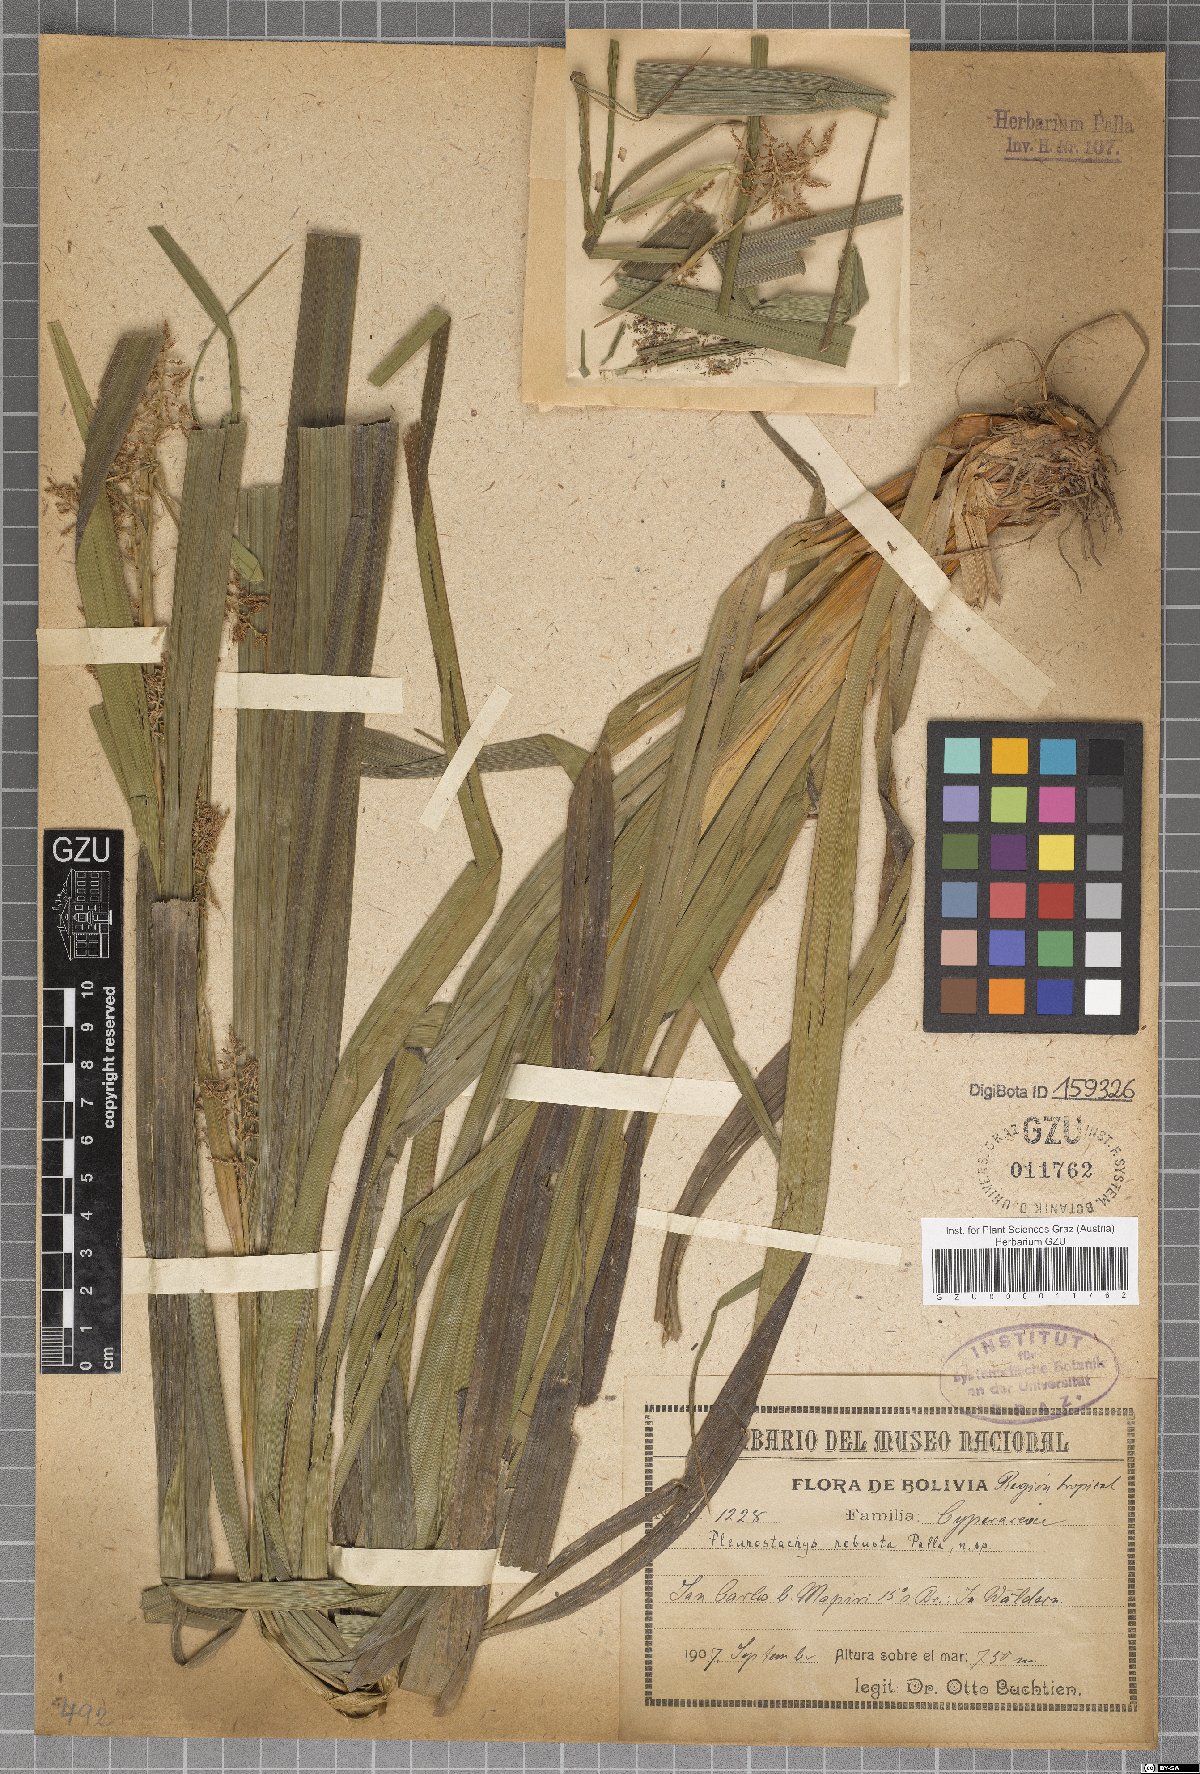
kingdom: Plantae
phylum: Tracheophyta
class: Liliopsida
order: Poales
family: Cyperaceae
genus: Rhynchospora
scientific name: Rhynchospora Pleurostachys robusta
